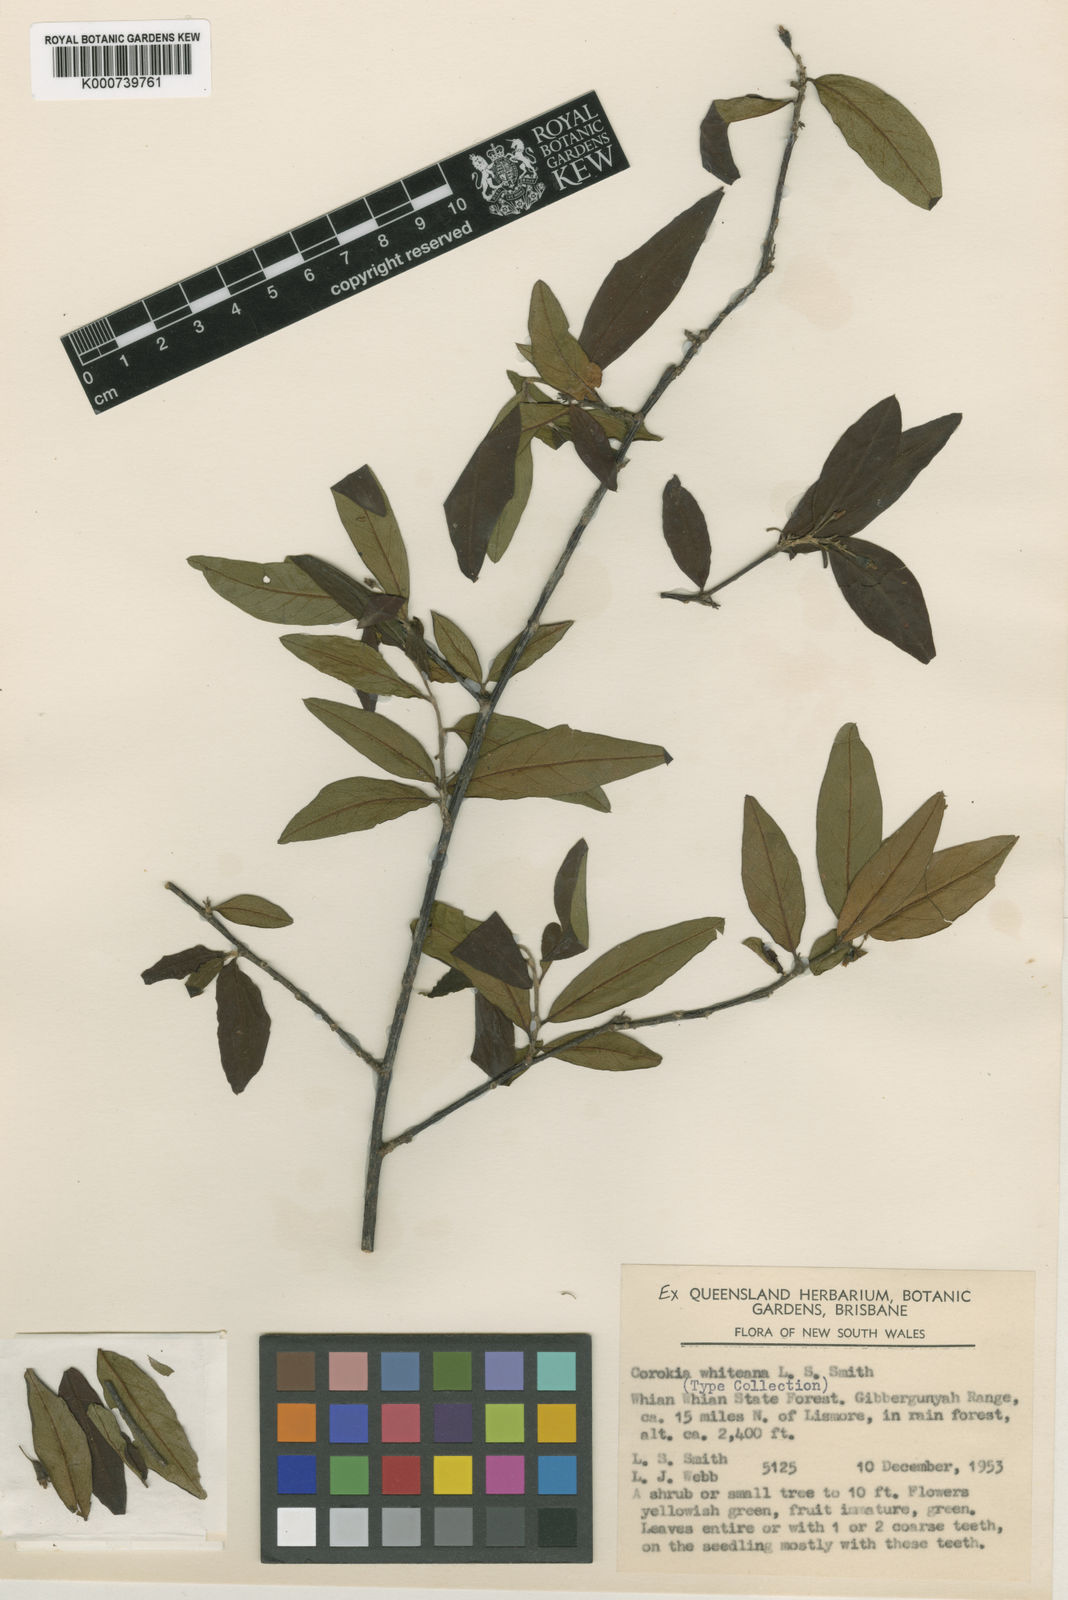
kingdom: Plantae
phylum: Tracheophyta
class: Magnoliopsida
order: Asterales
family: Argophyllaceae
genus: Corokia
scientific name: Corokia whiteana
